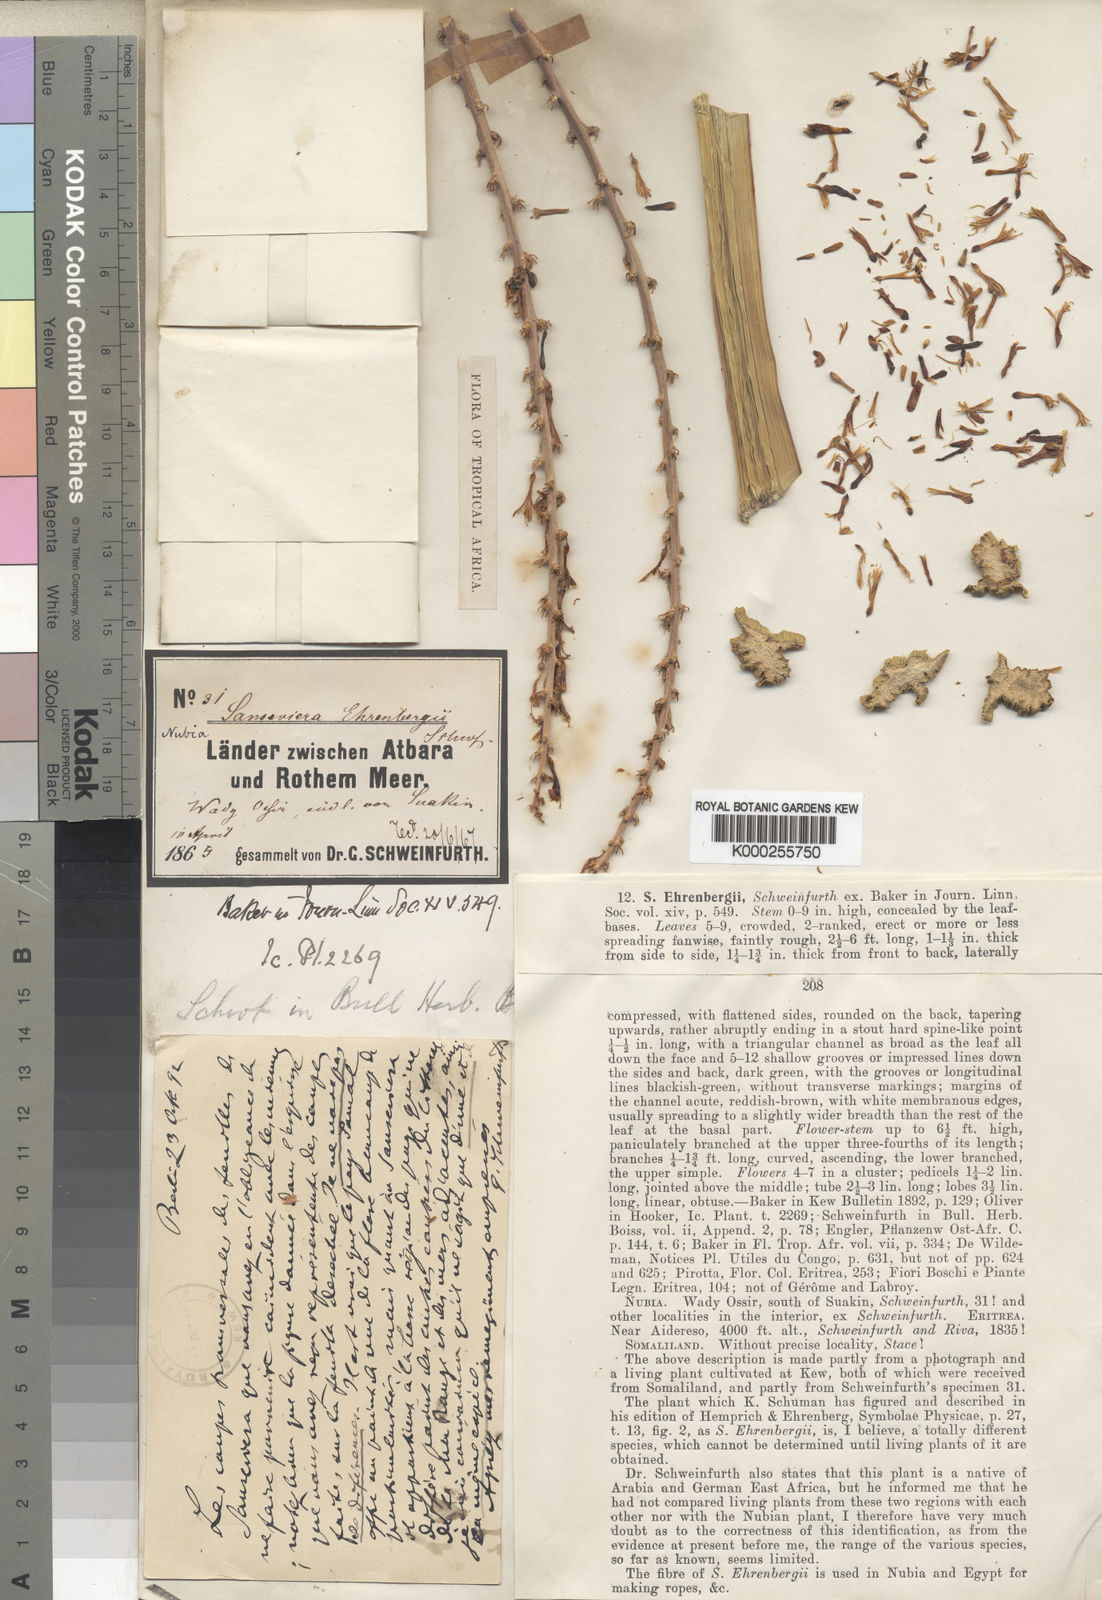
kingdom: Plantae
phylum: Tracheophyta
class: Liliopsida
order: Asparagales
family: Asparagaceae
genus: Dracaena
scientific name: Dracaena hanningtonii
